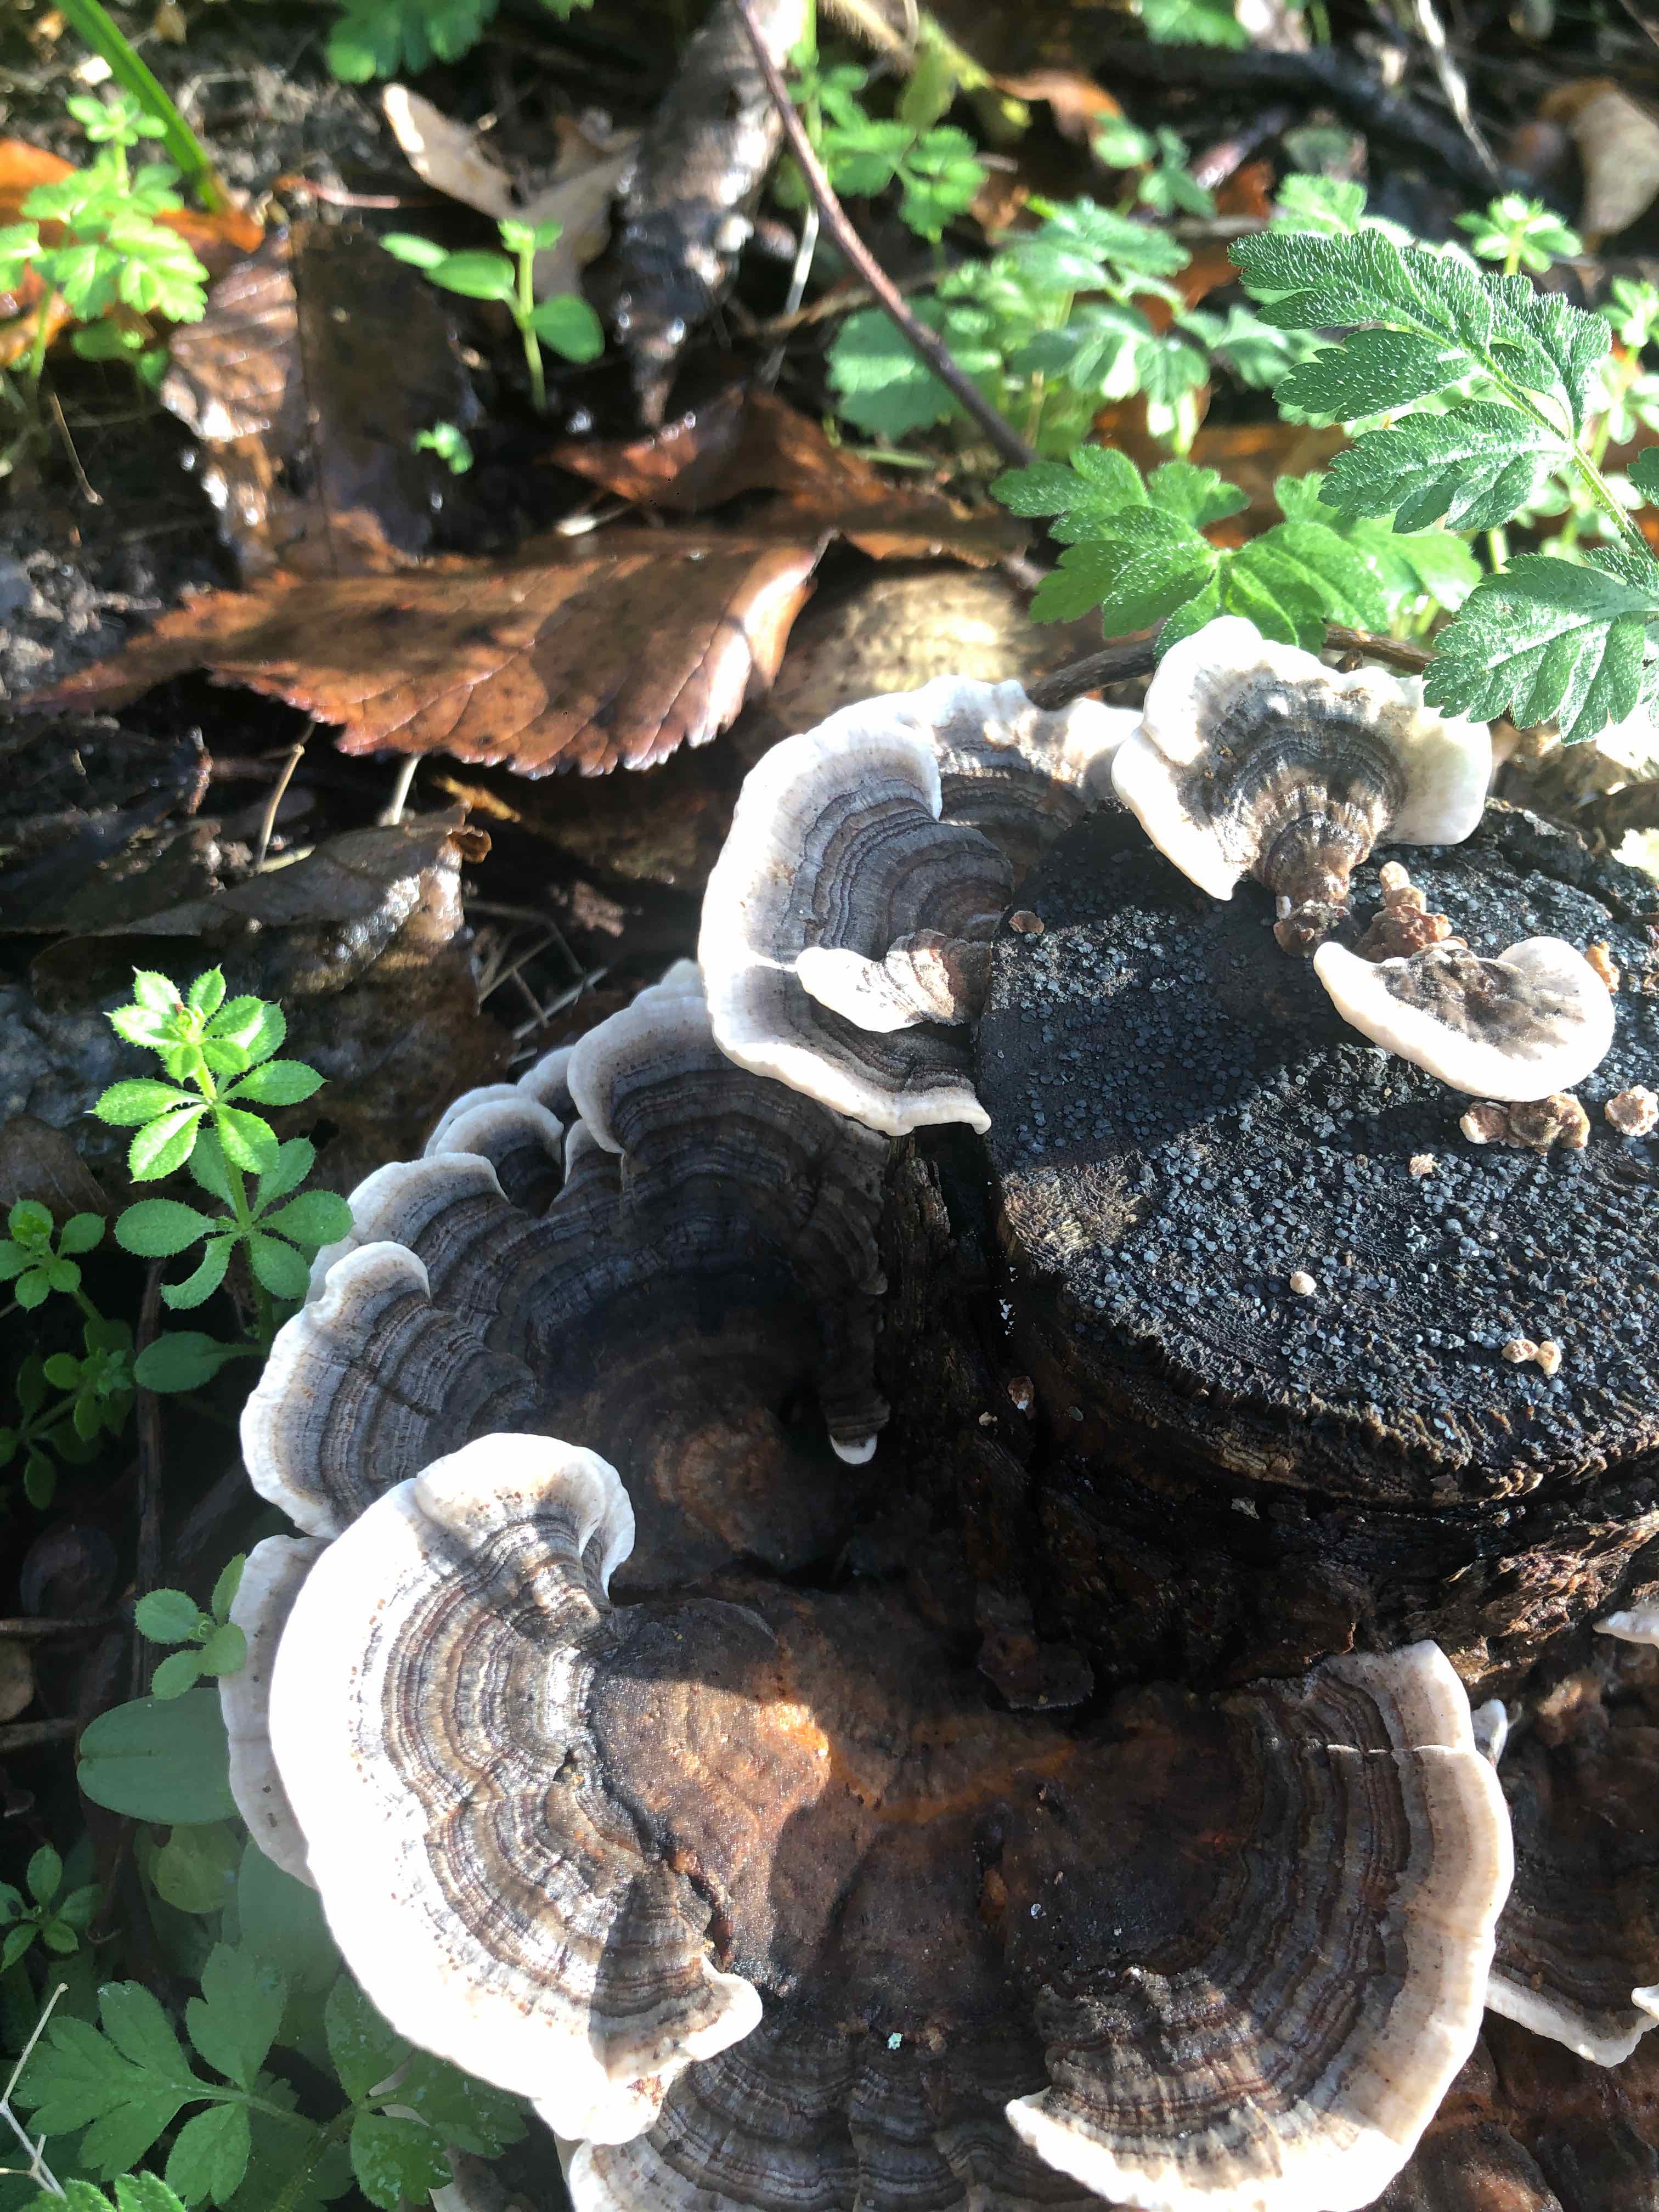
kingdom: Fungi
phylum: Basidiomycota
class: Agaricomycetes
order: Polyporales
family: Polyporaceae
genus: Trametes
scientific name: Trametes versicolor
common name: broget læderporesvamp
